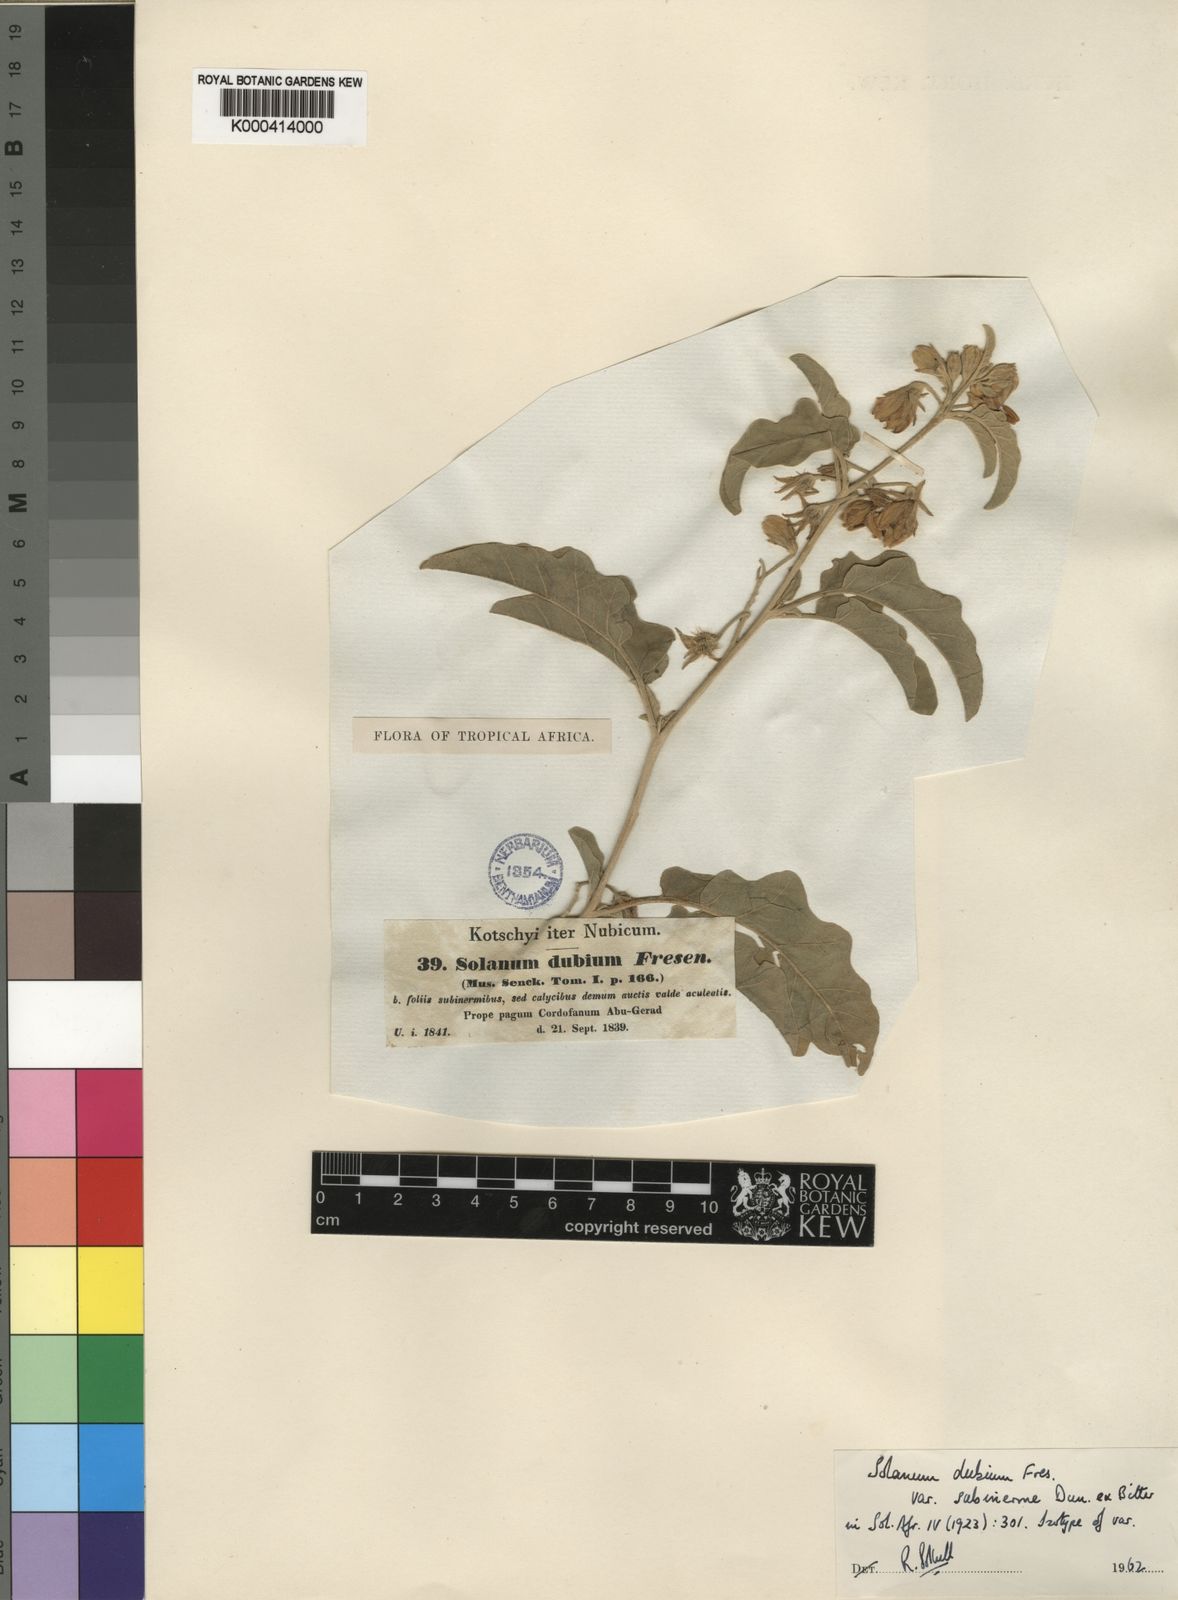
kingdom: Plantae
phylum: Tracheophyta
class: Magnoliopsida
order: Solanales
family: Solanaceae
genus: Solanum
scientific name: Solanum coagulans
